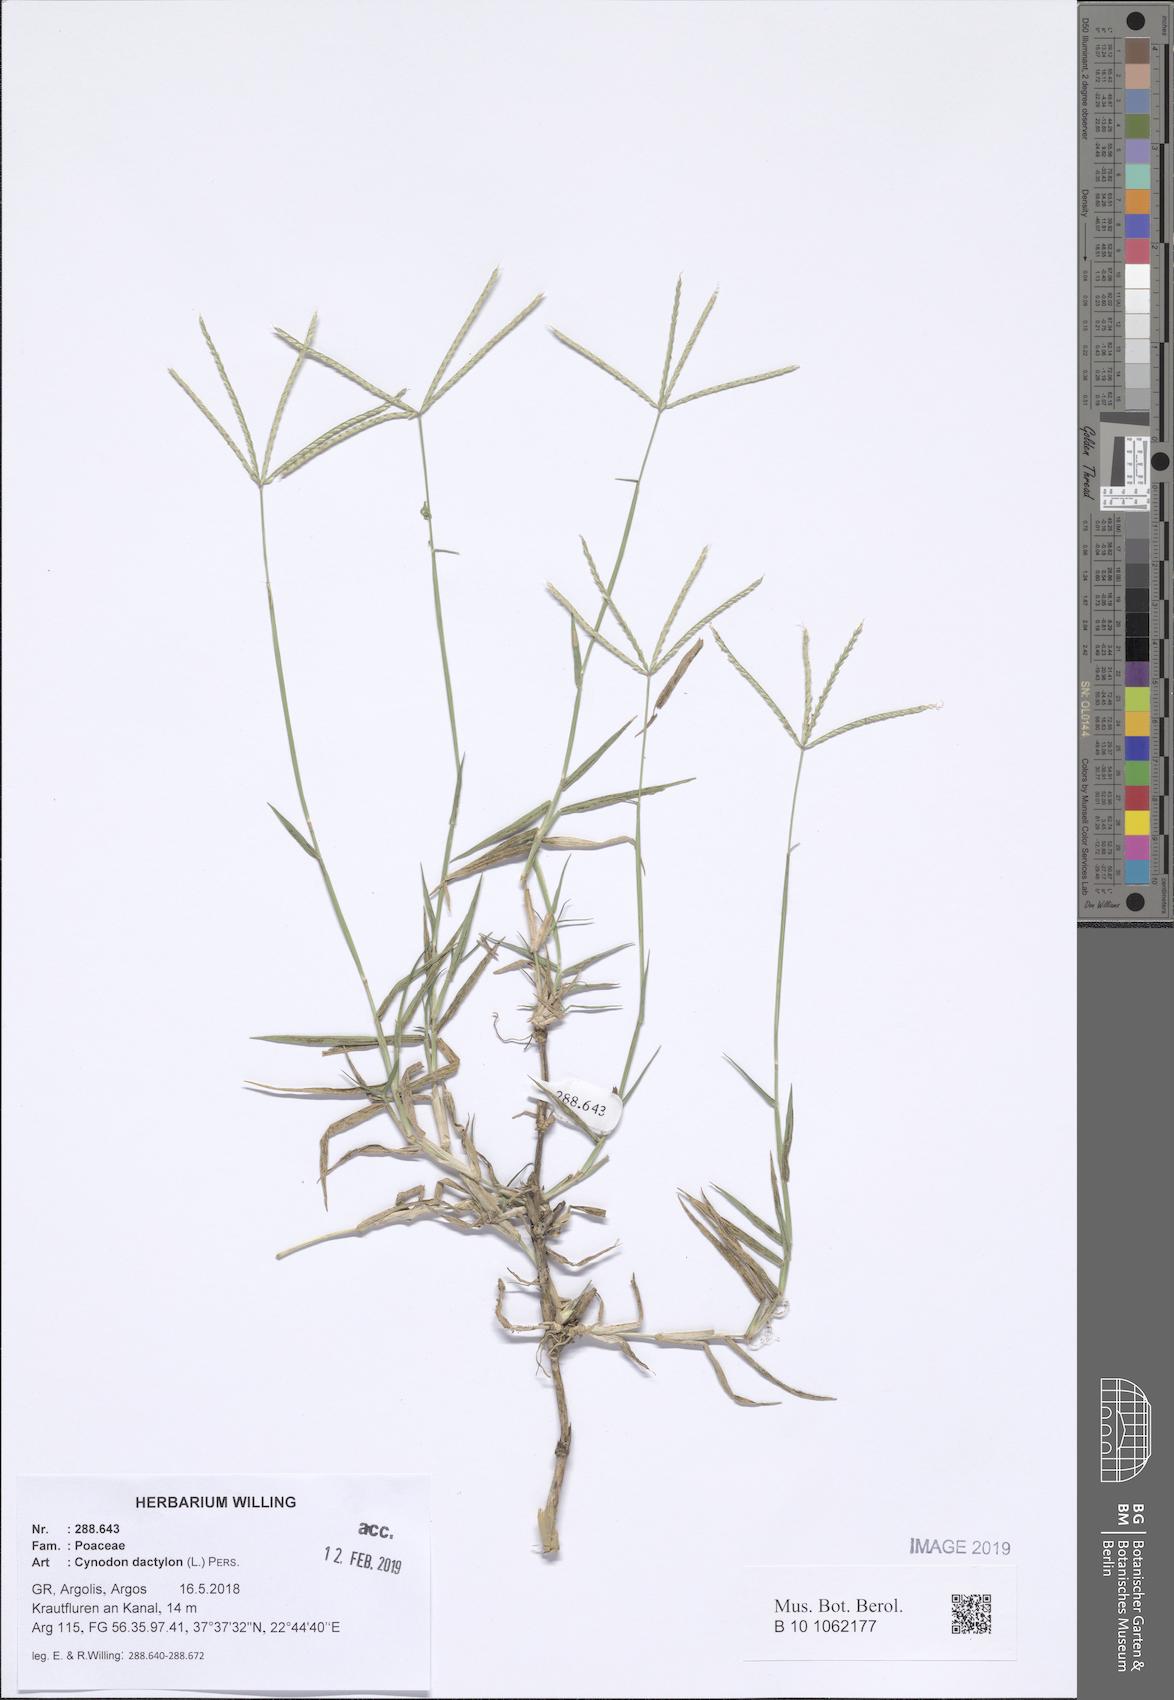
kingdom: Plantae
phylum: Tracheophyta
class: Liliopsida
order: Poales
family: Poaceae
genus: Cynodon
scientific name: Cynodon dactylon
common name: Bermuda grass
